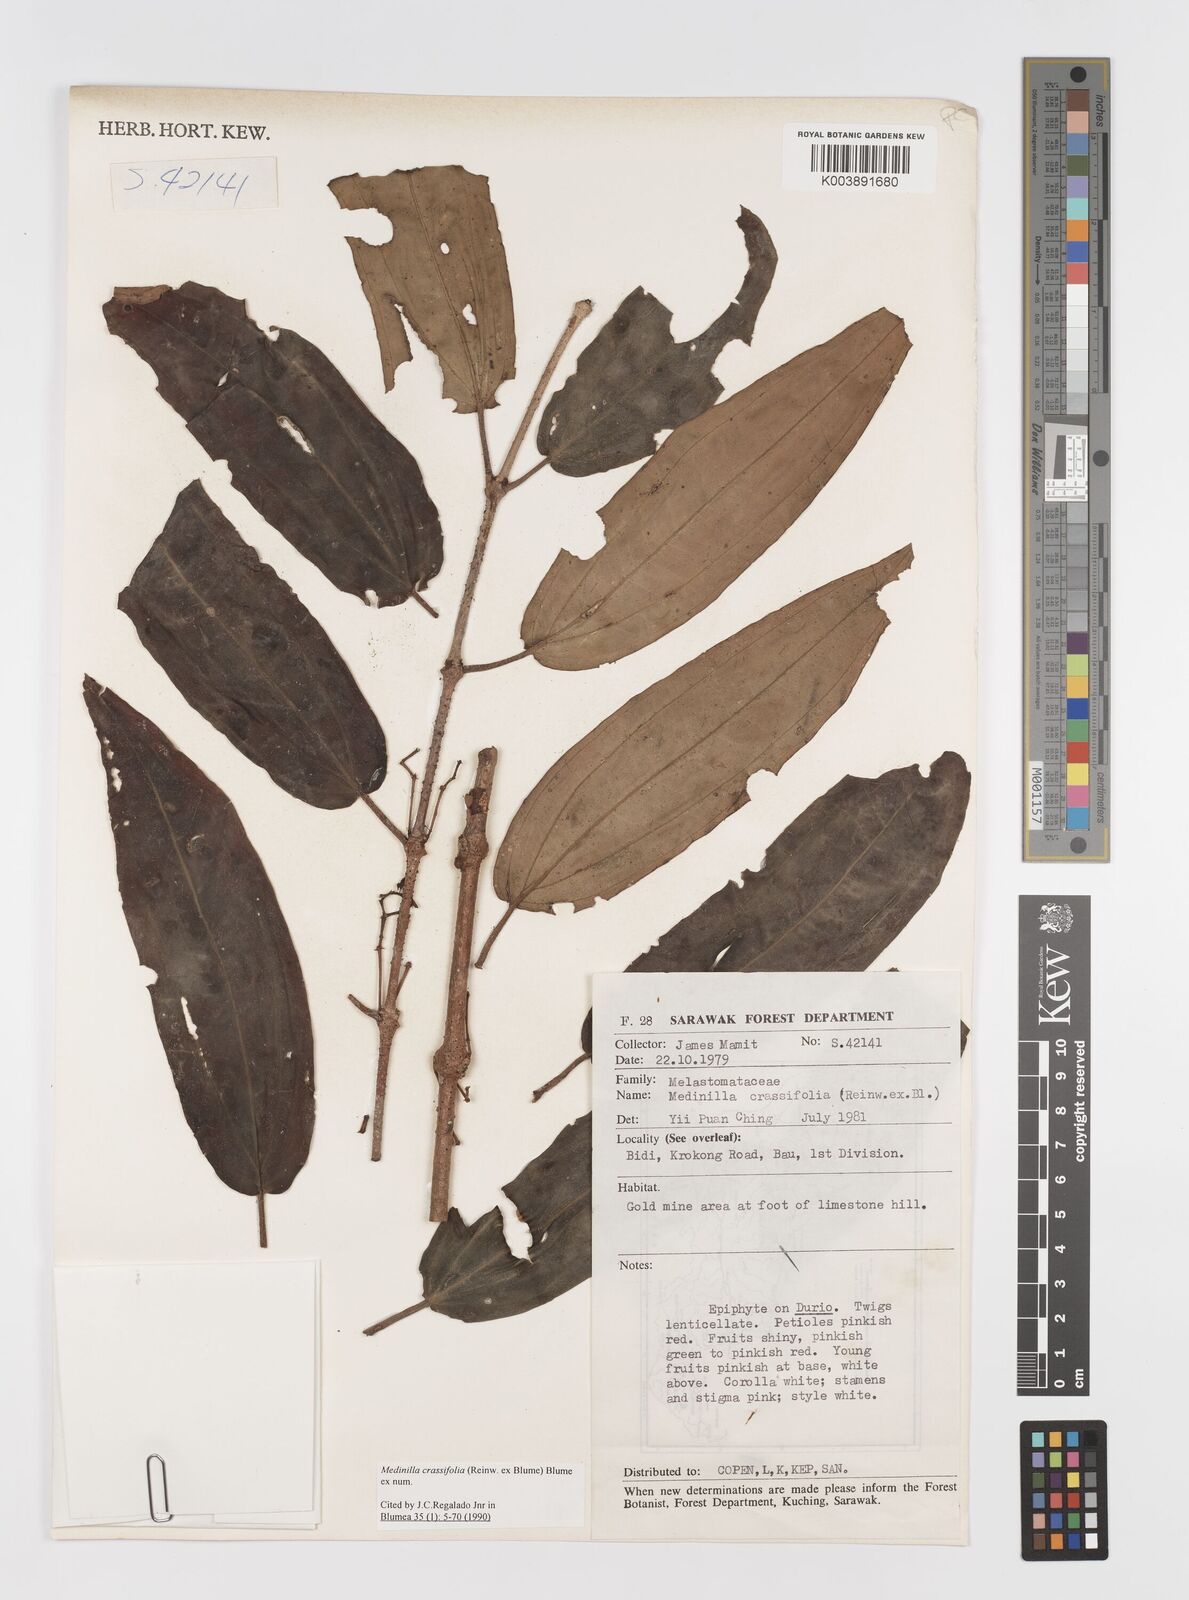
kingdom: Plantae
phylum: Tracheophyta
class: Magnoliopsida
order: Myrtales
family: Melastomataceae
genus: Medinilla
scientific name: Medinilla crassifolia
